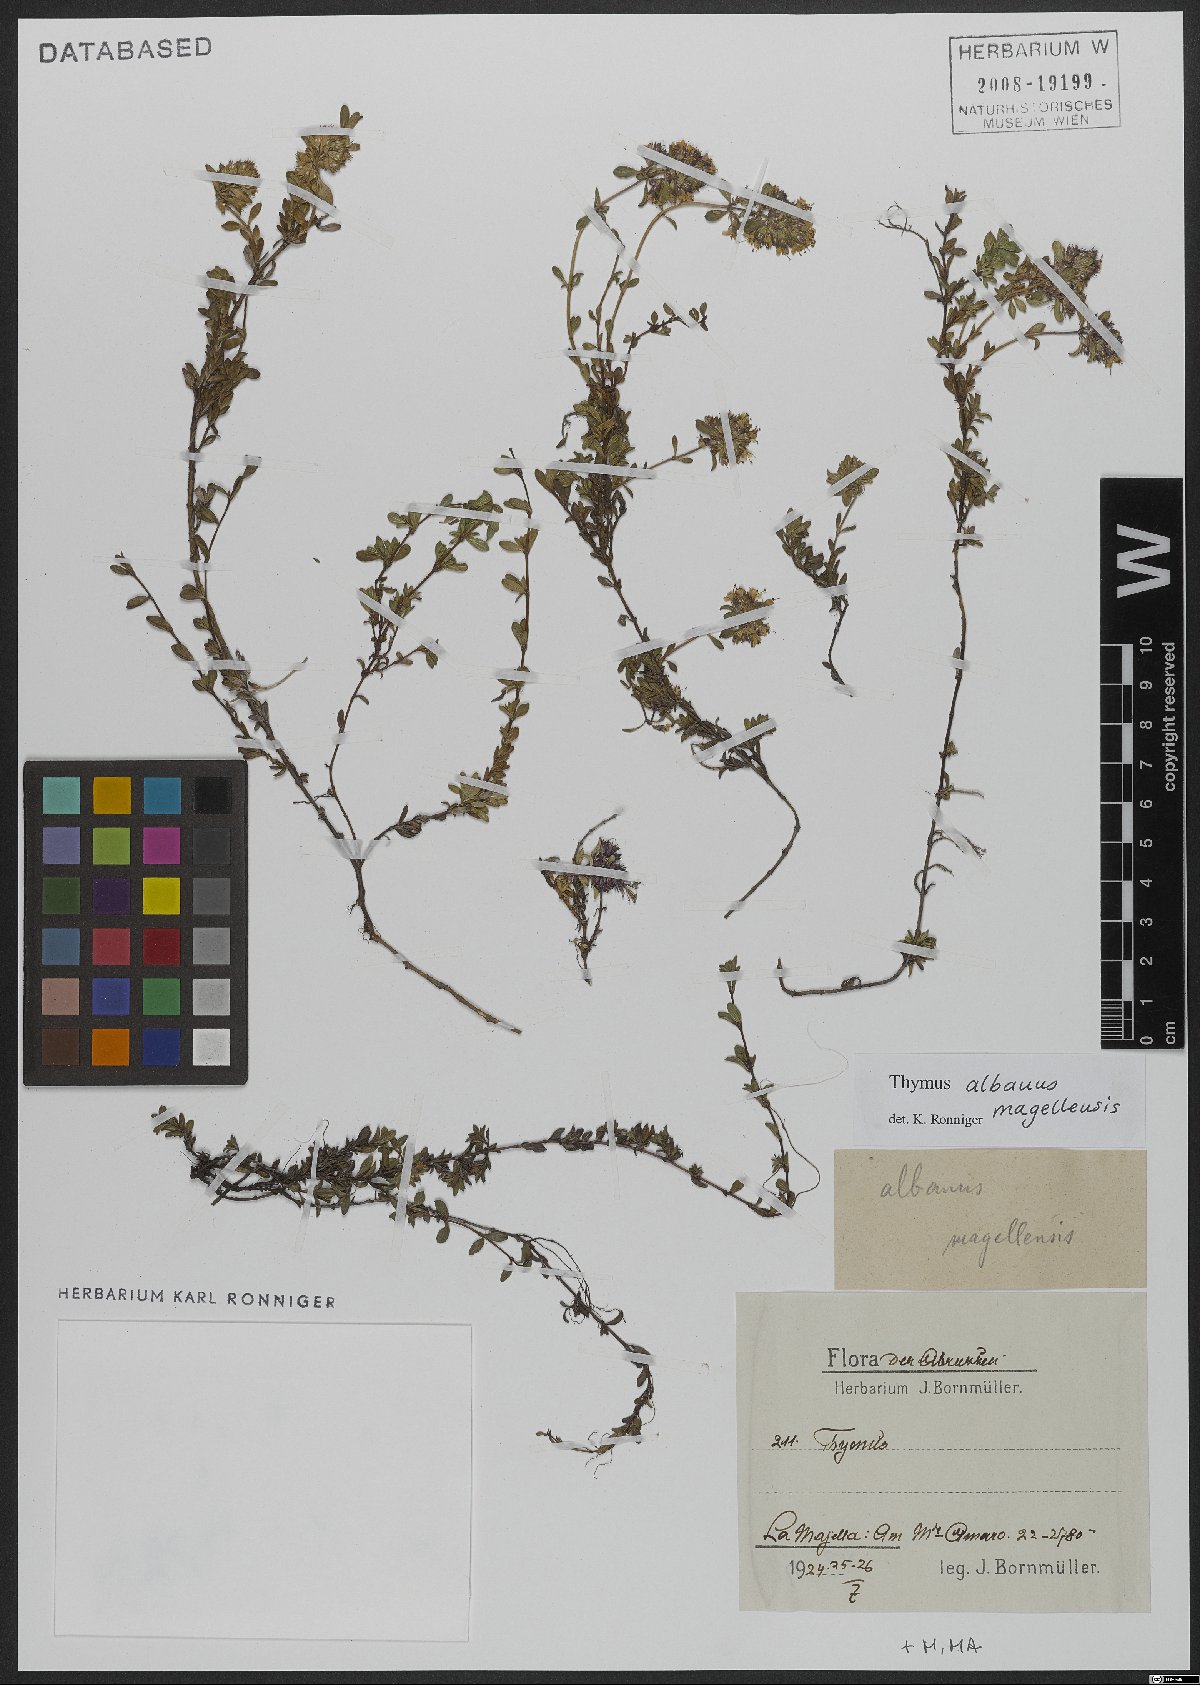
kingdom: Plantae
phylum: Tracheophyta
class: Magnoliopsida
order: Lamiales
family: Lamiaceae
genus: Thymus
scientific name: Thymus zygiformis
